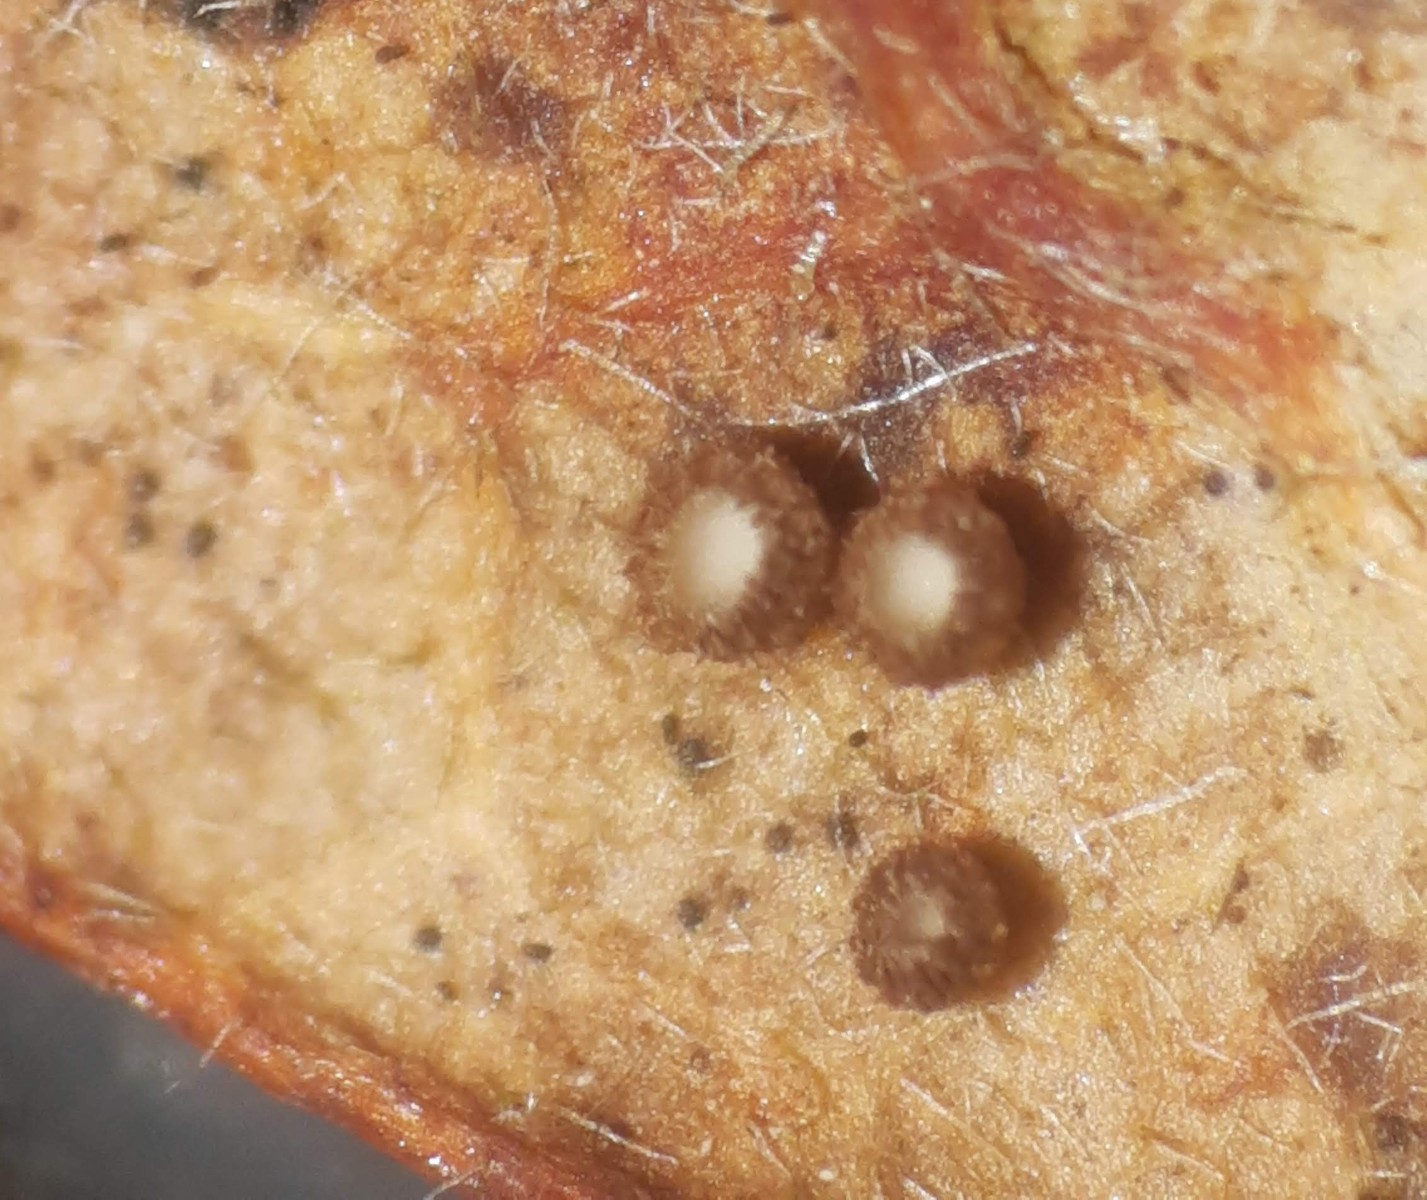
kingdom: Fungi
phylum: Ascomycota
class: Leotiomycetes
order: Helotiales
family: Lachnaceae
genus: Brunnipila
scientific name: Brunnipila brunneola
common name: læderbrun frynseskive
